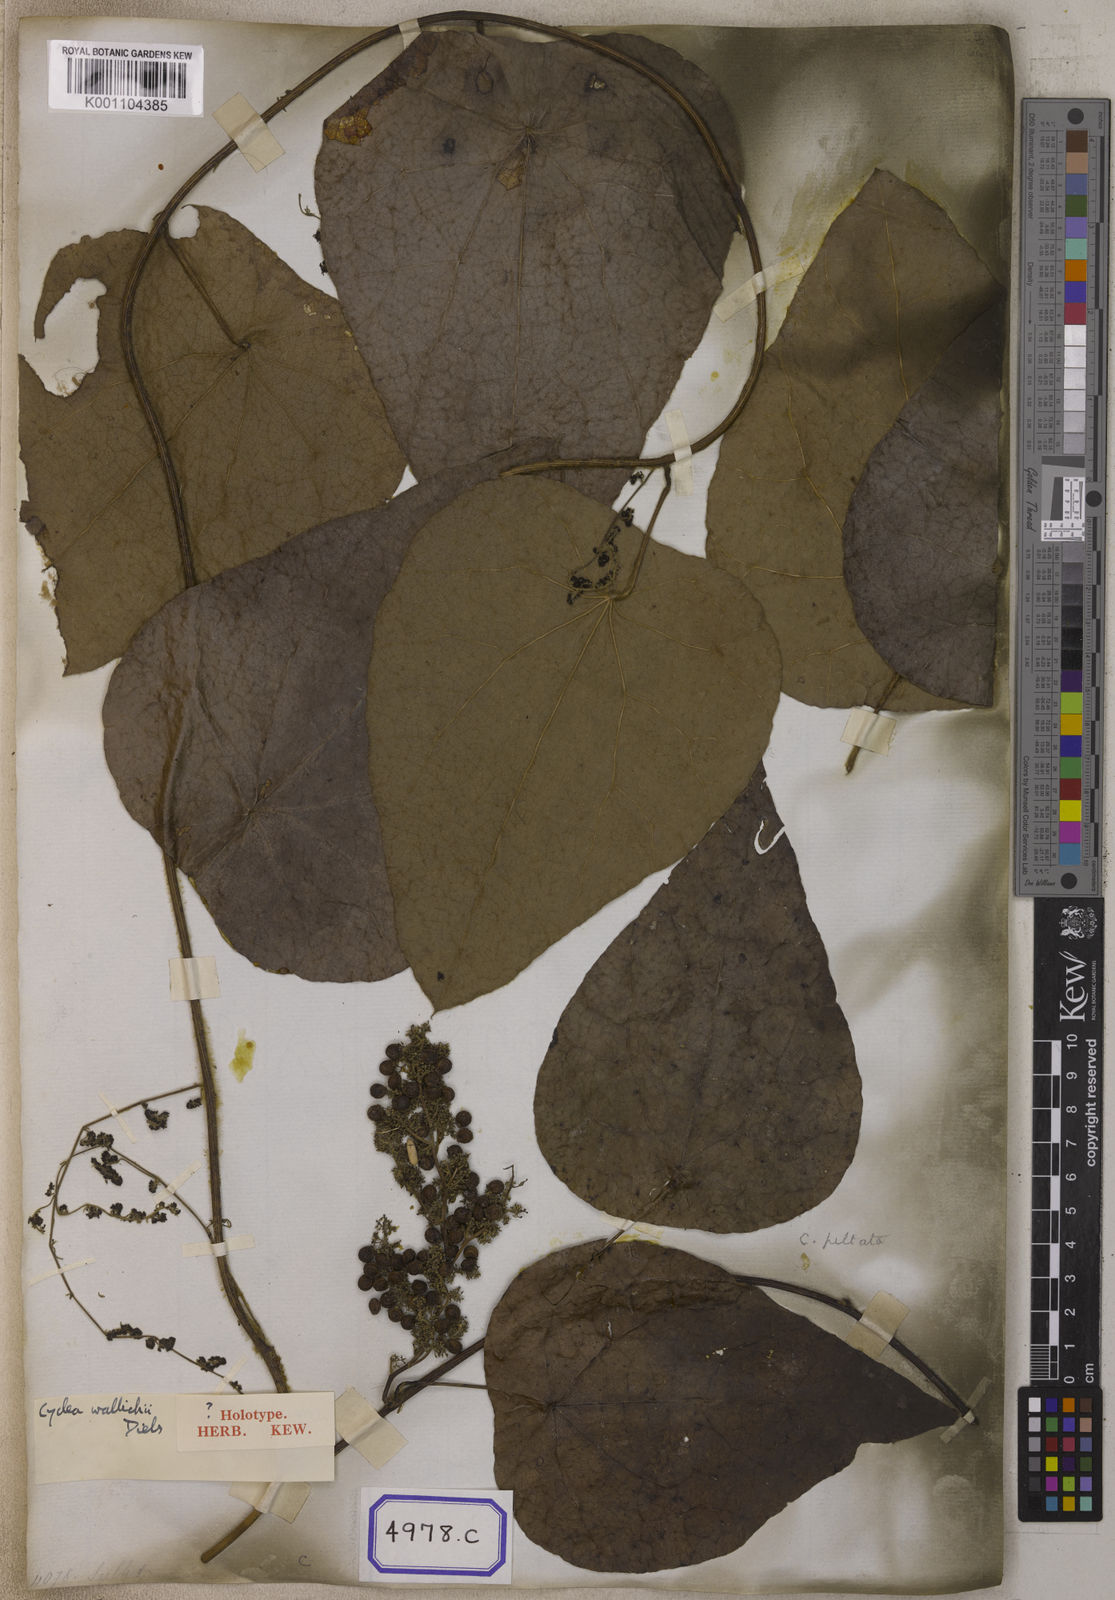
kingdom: Plantae
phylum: Tracheophyta
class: Magnoliopsida
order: Ranunculales
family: Menispermaceae
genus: Cissampelos
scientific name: Cissampelos
